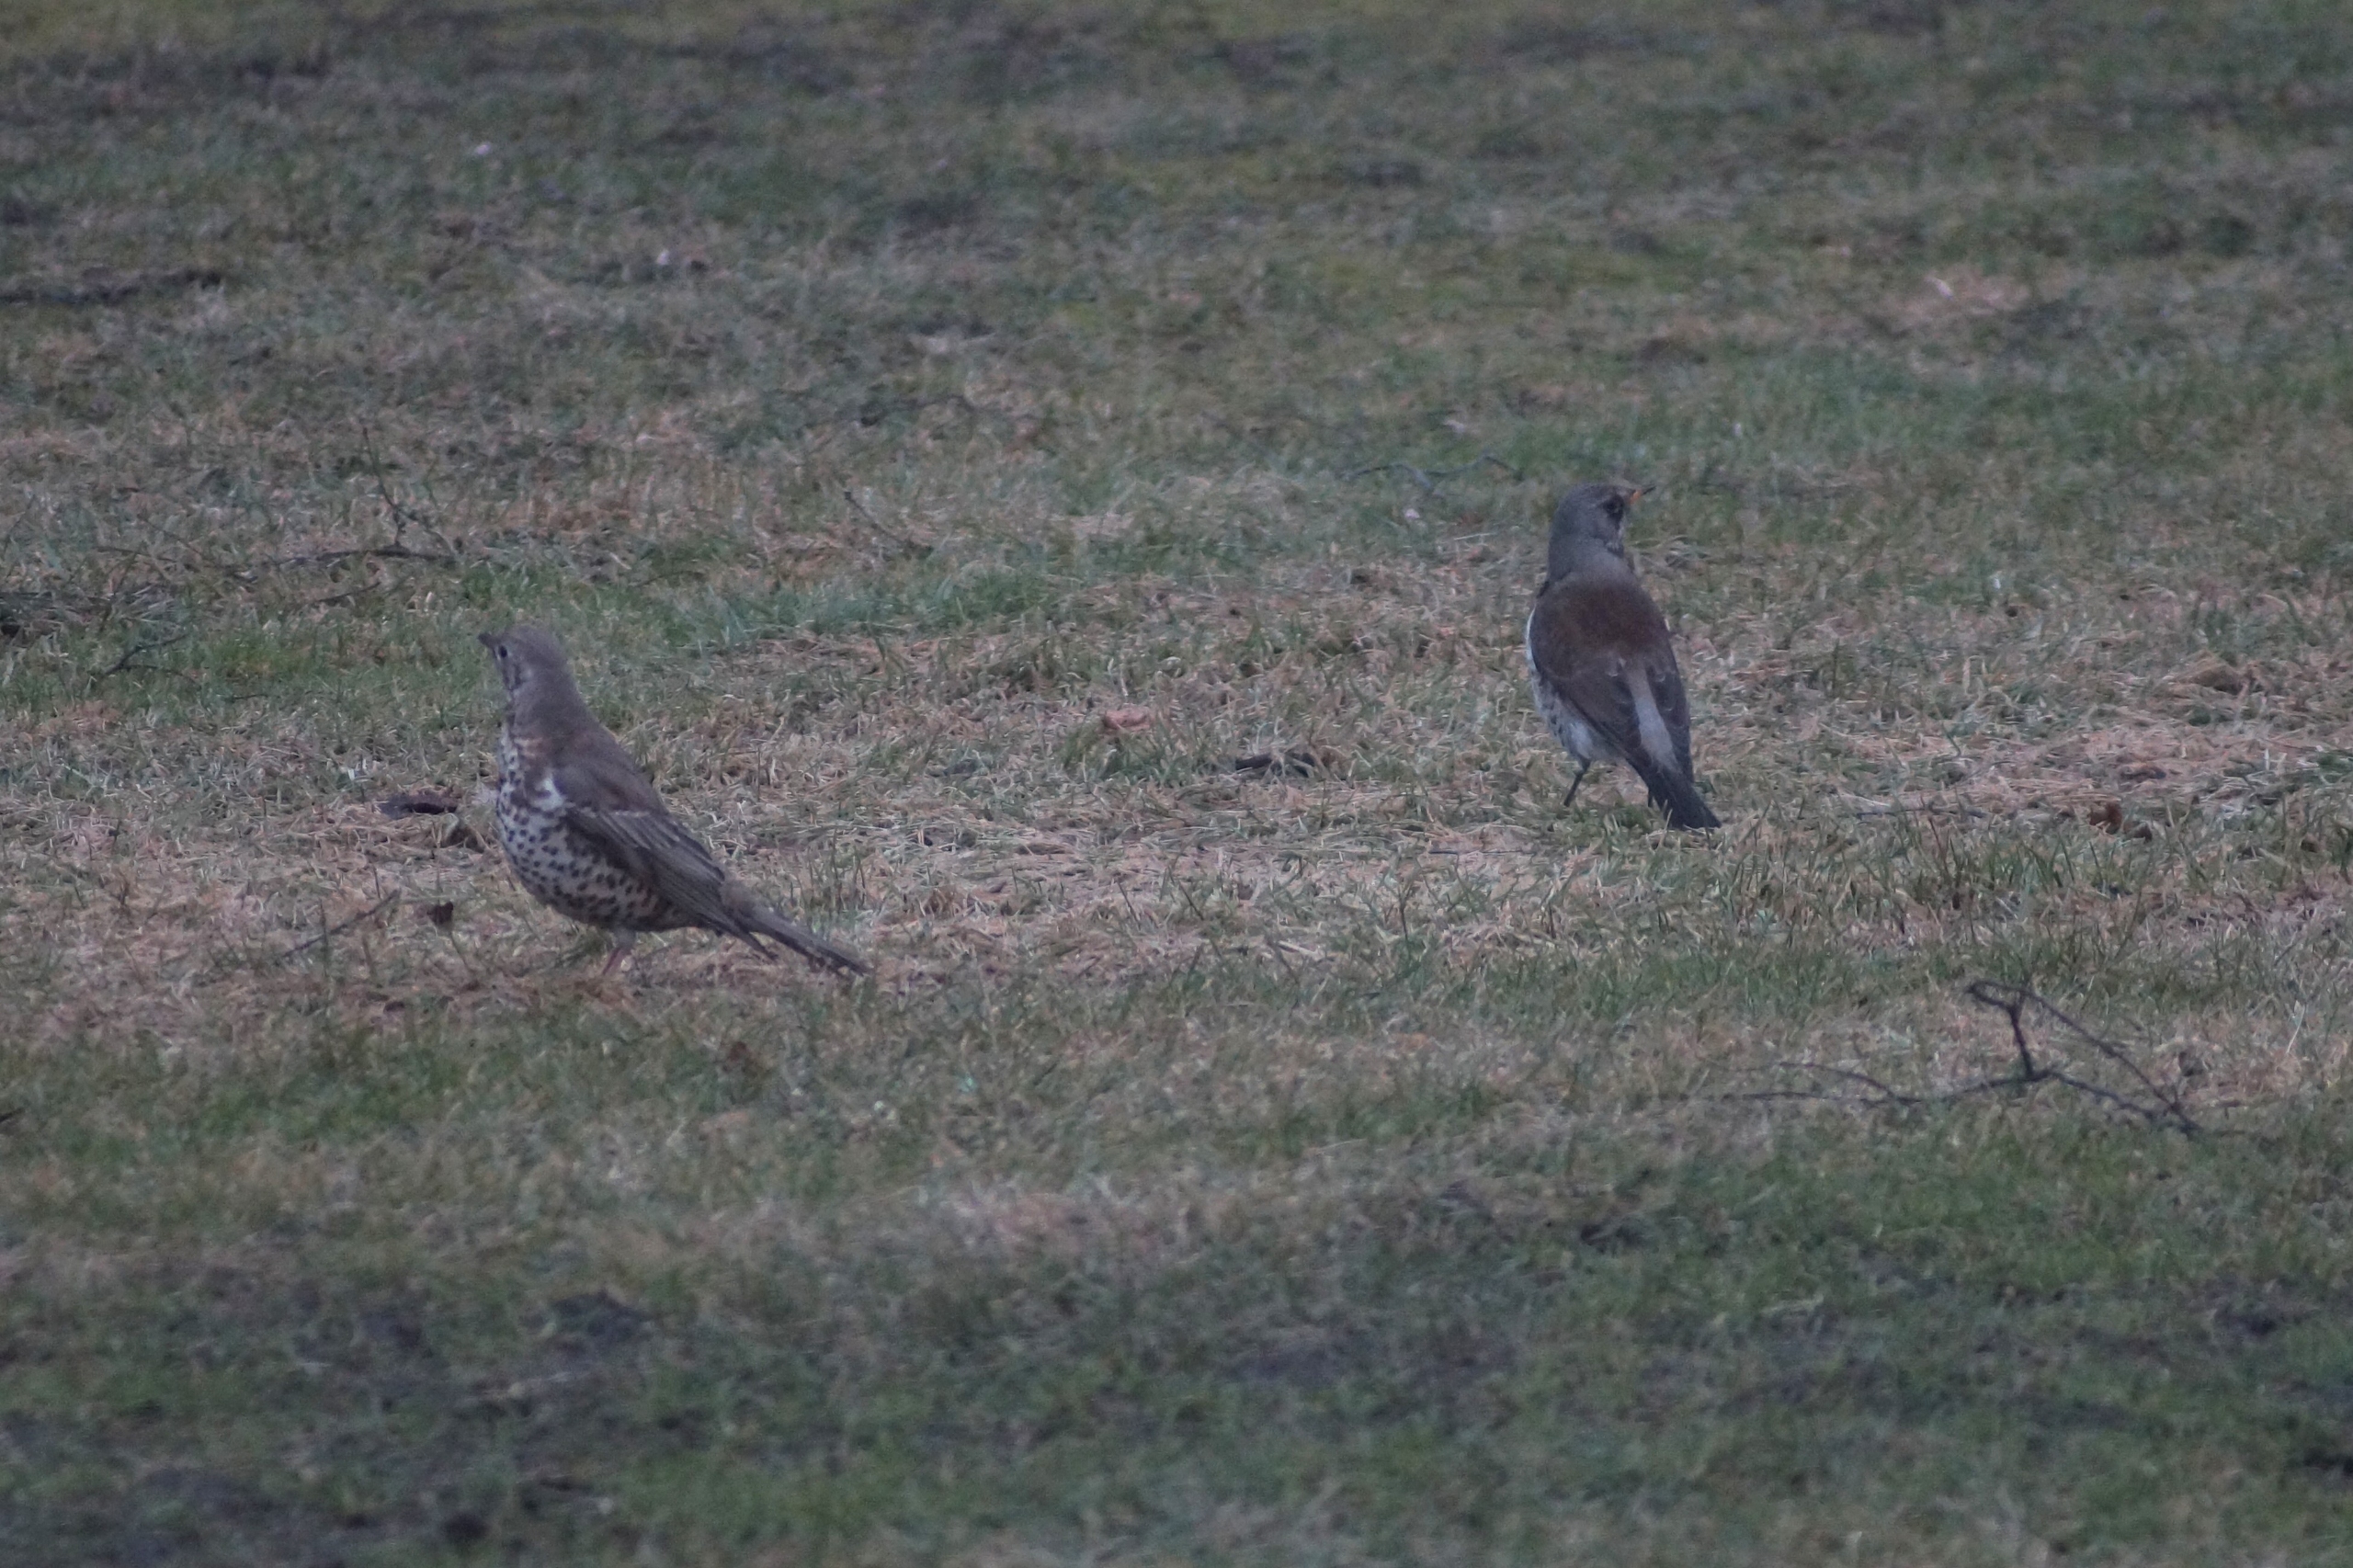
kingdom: Animalia
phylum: Chordata
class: Aves
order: Passeriformes
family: Turdidae
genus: Turdus
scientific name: Turdus pilaris
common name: Sjagger
